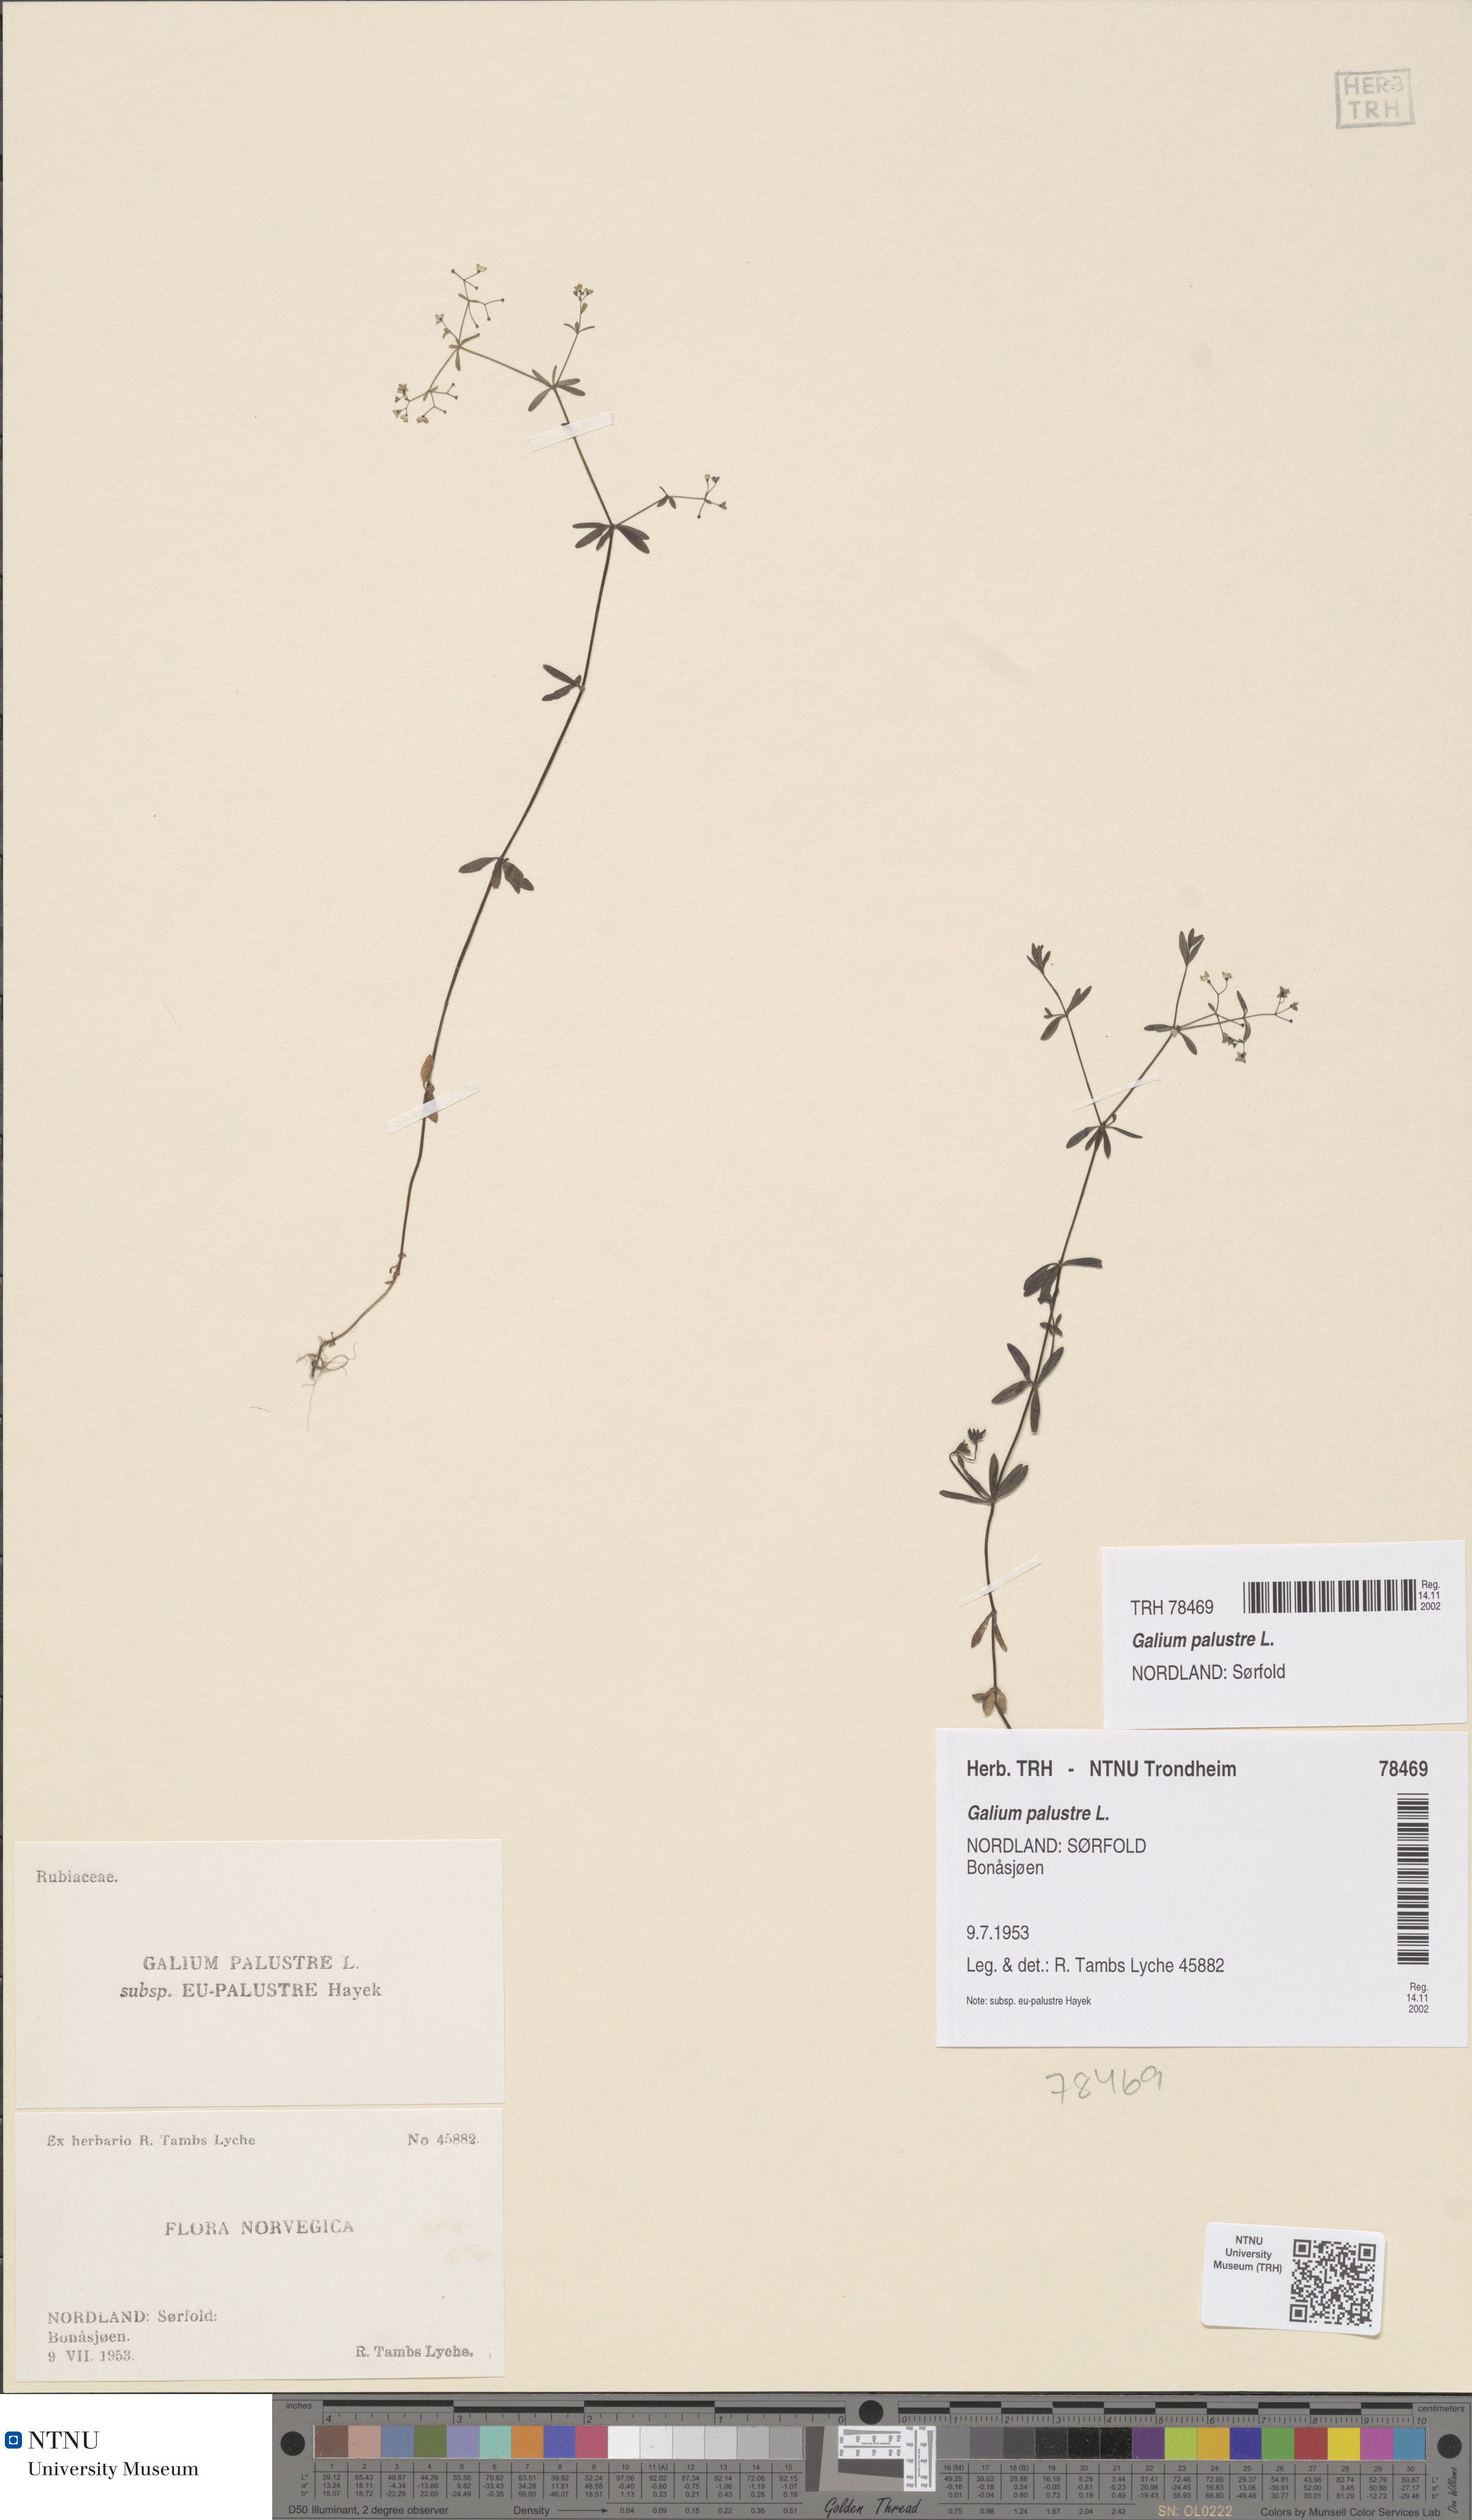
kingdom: Plantae
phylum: Tracheophyta
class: Magnoliopsida
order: Gentianales
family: Rubiaceae
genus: Galium
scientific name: Galium palustre
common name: Common marsh-bedstraw
